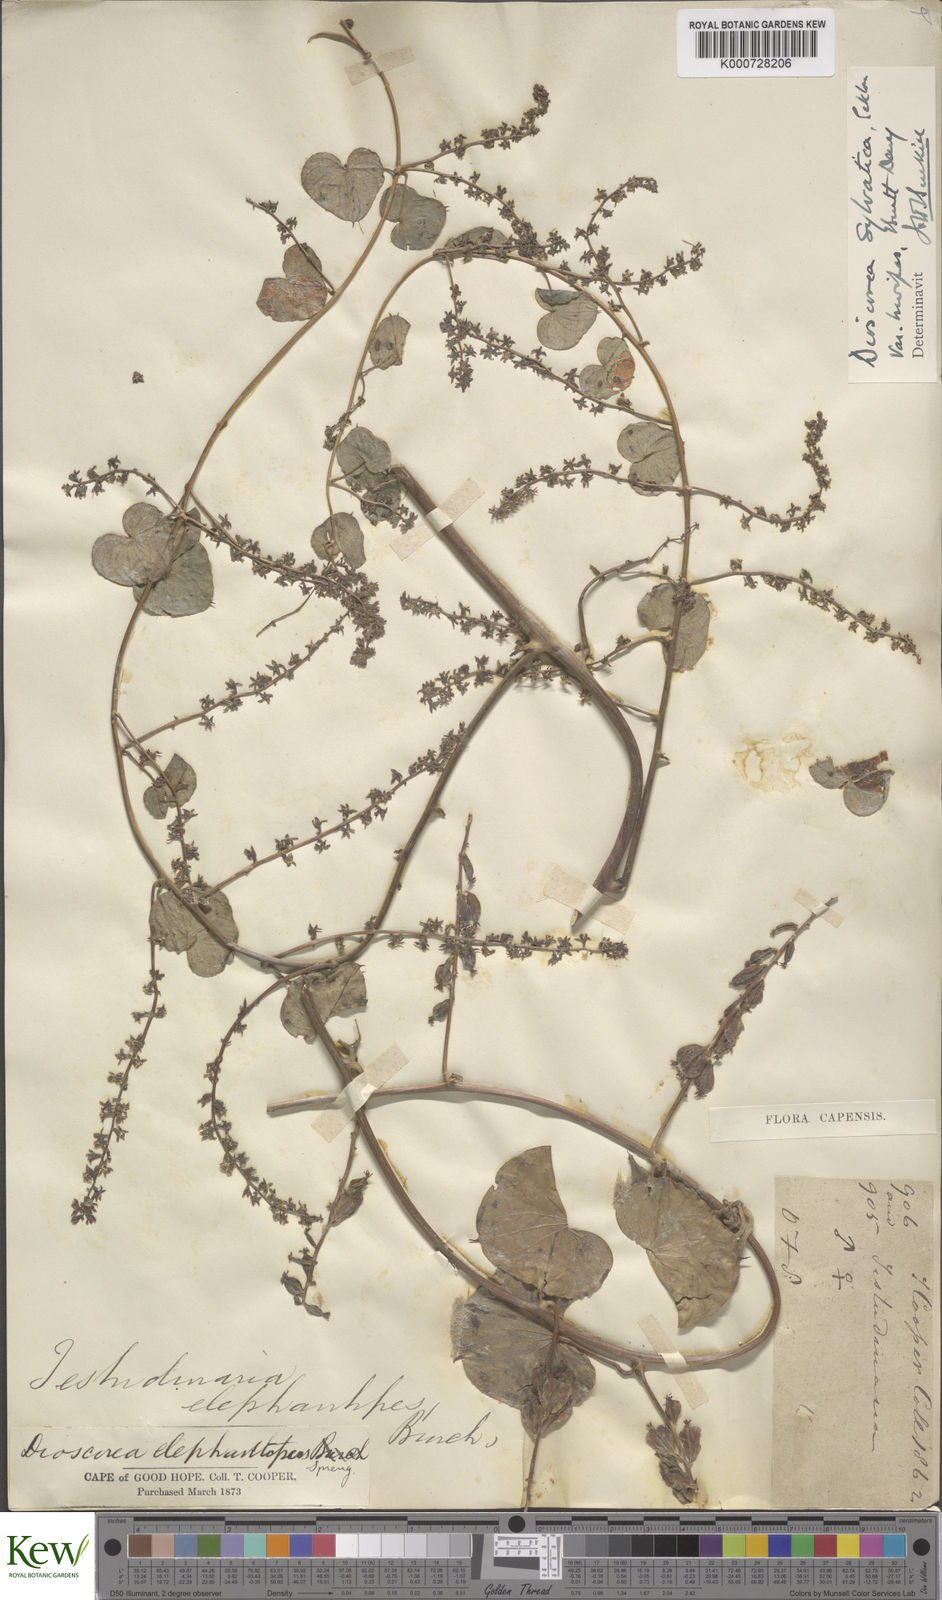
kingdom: Plantae
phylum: Tracheophyta
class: Liliopsida
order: Dioscoreales
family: Dioscoreaceae
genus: Dioscorea
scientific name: Dioscorea sylvatica
